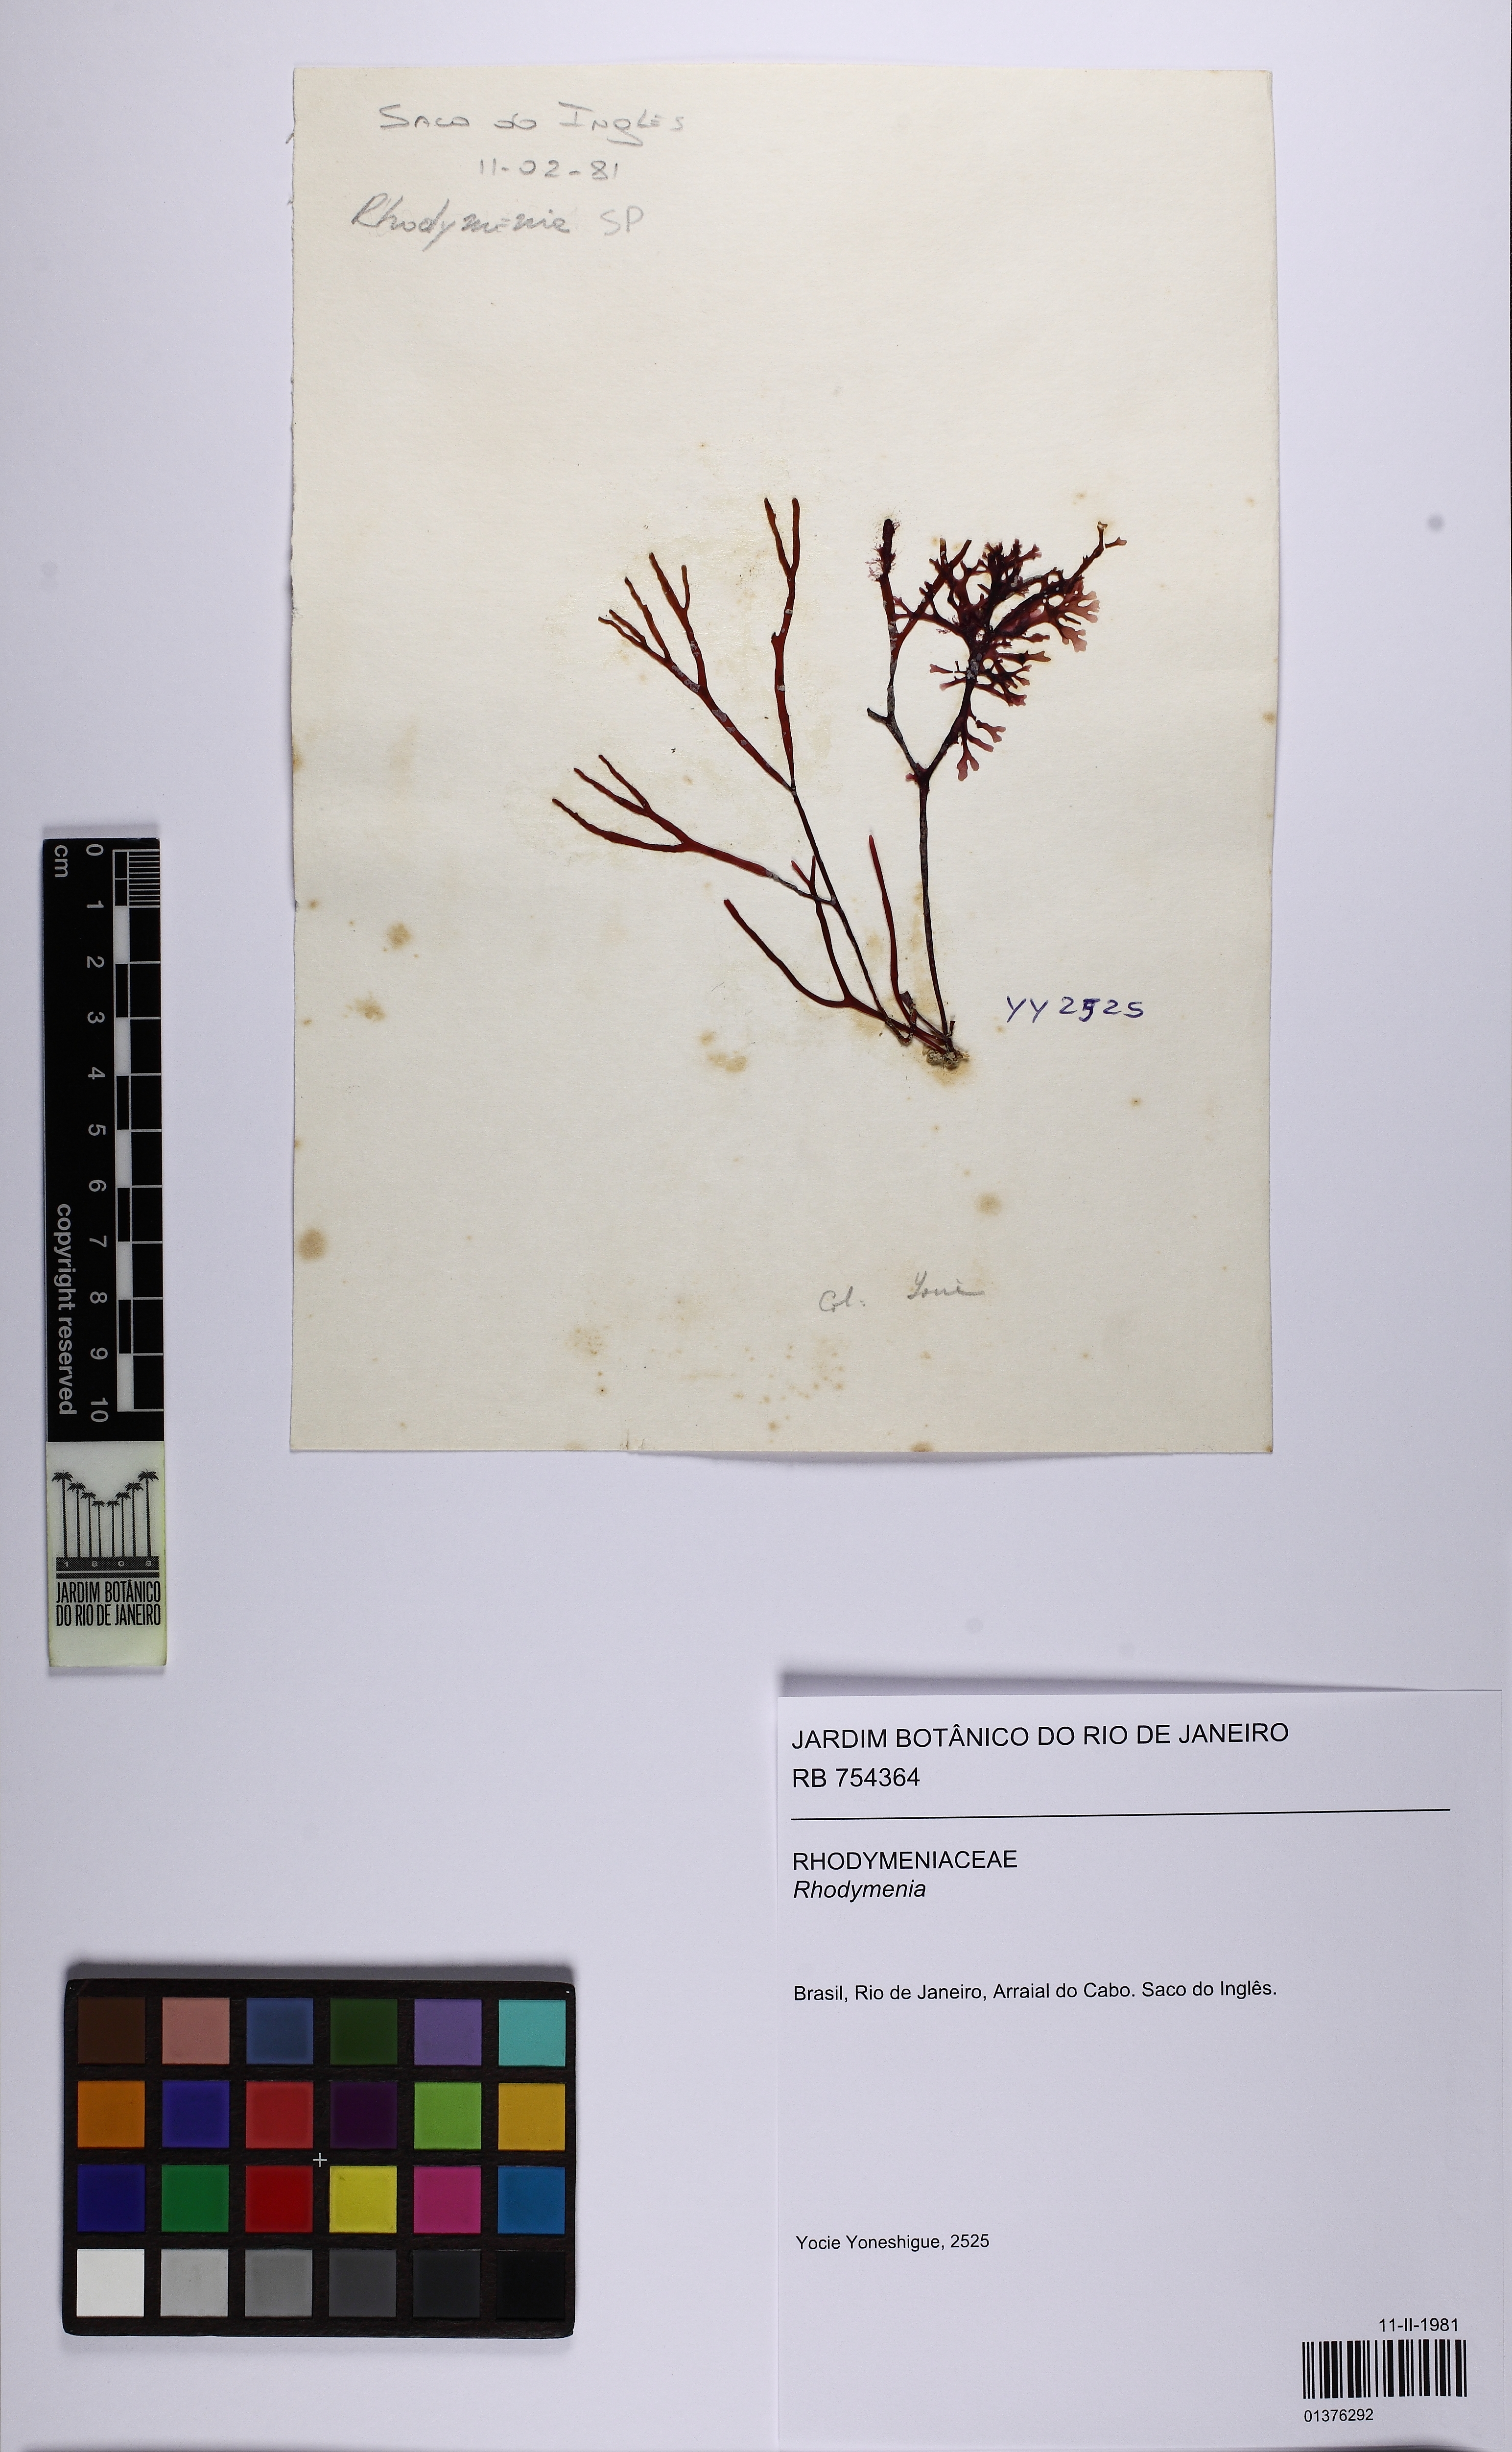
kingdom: Plantae
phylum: Rhodophyta
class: Florideophyceae
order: Rhodymeniales
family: Rhodymeniaceae
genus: Rhodymenia
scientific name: Rhodymenia
